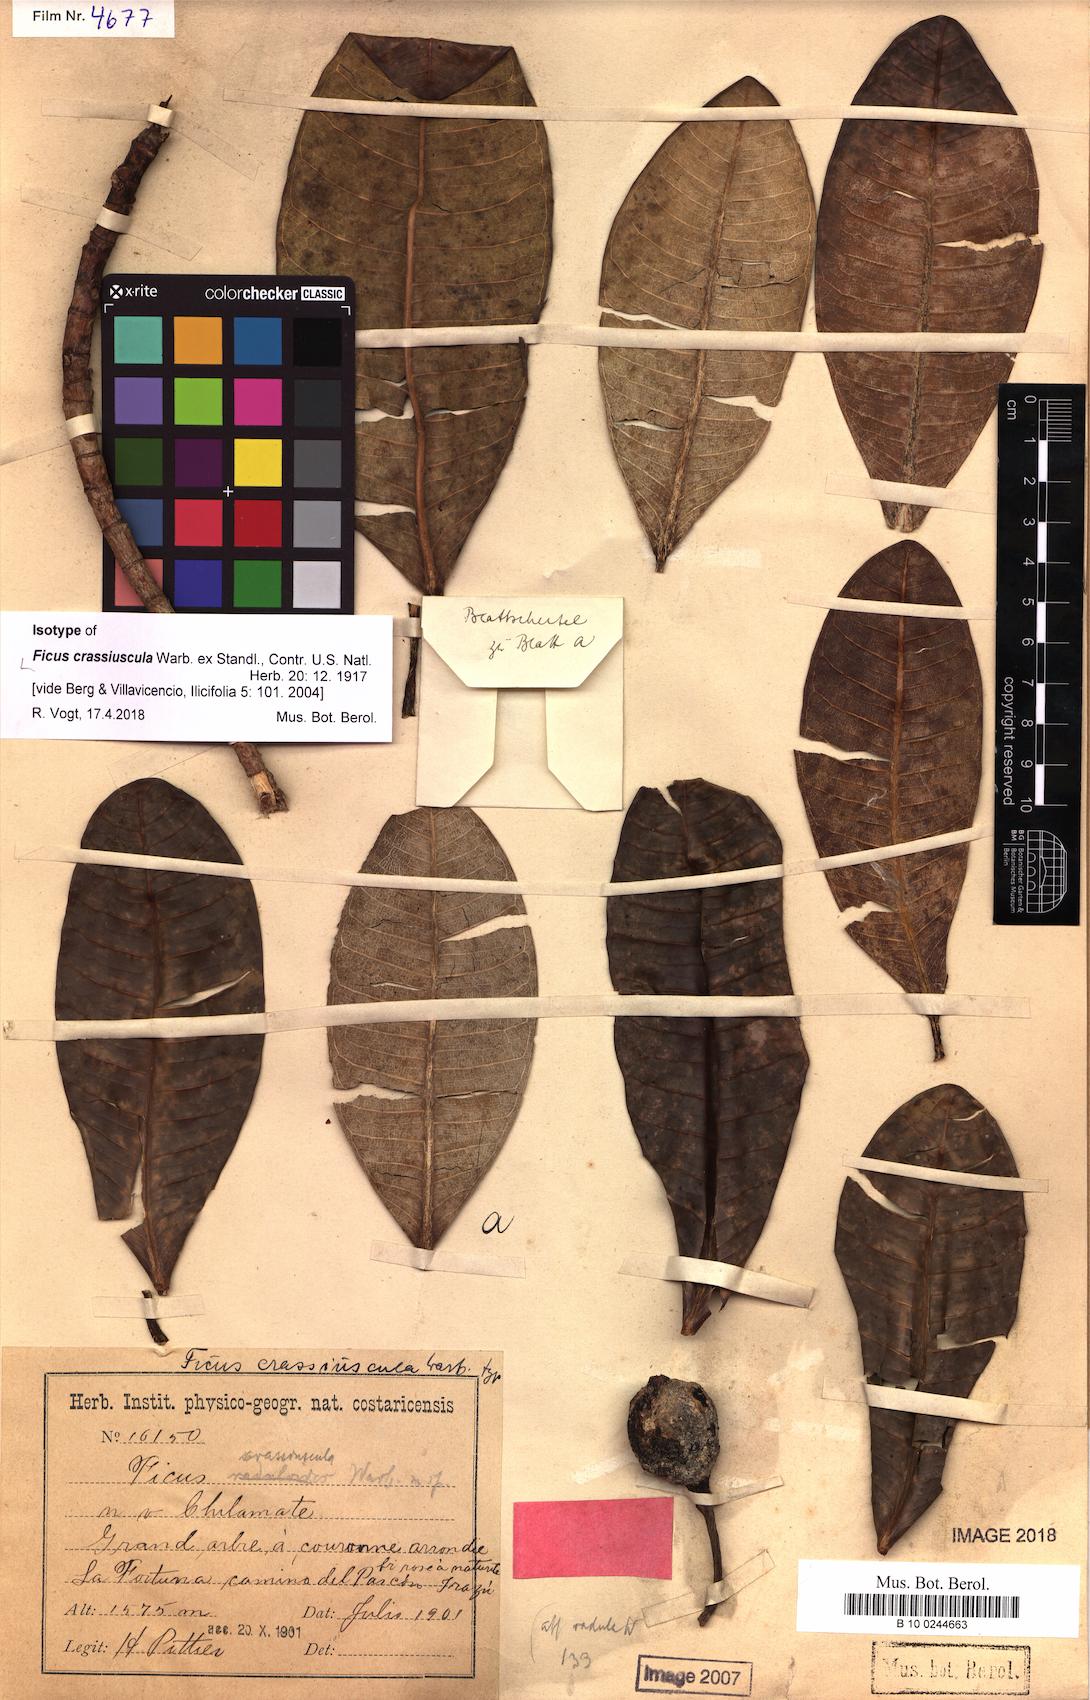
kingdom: Plantae
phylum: Tracheophyta
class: Magnoliopsida
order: Rosales
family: Moraceae
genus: Ficus
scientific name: Ficus crassiuscula
